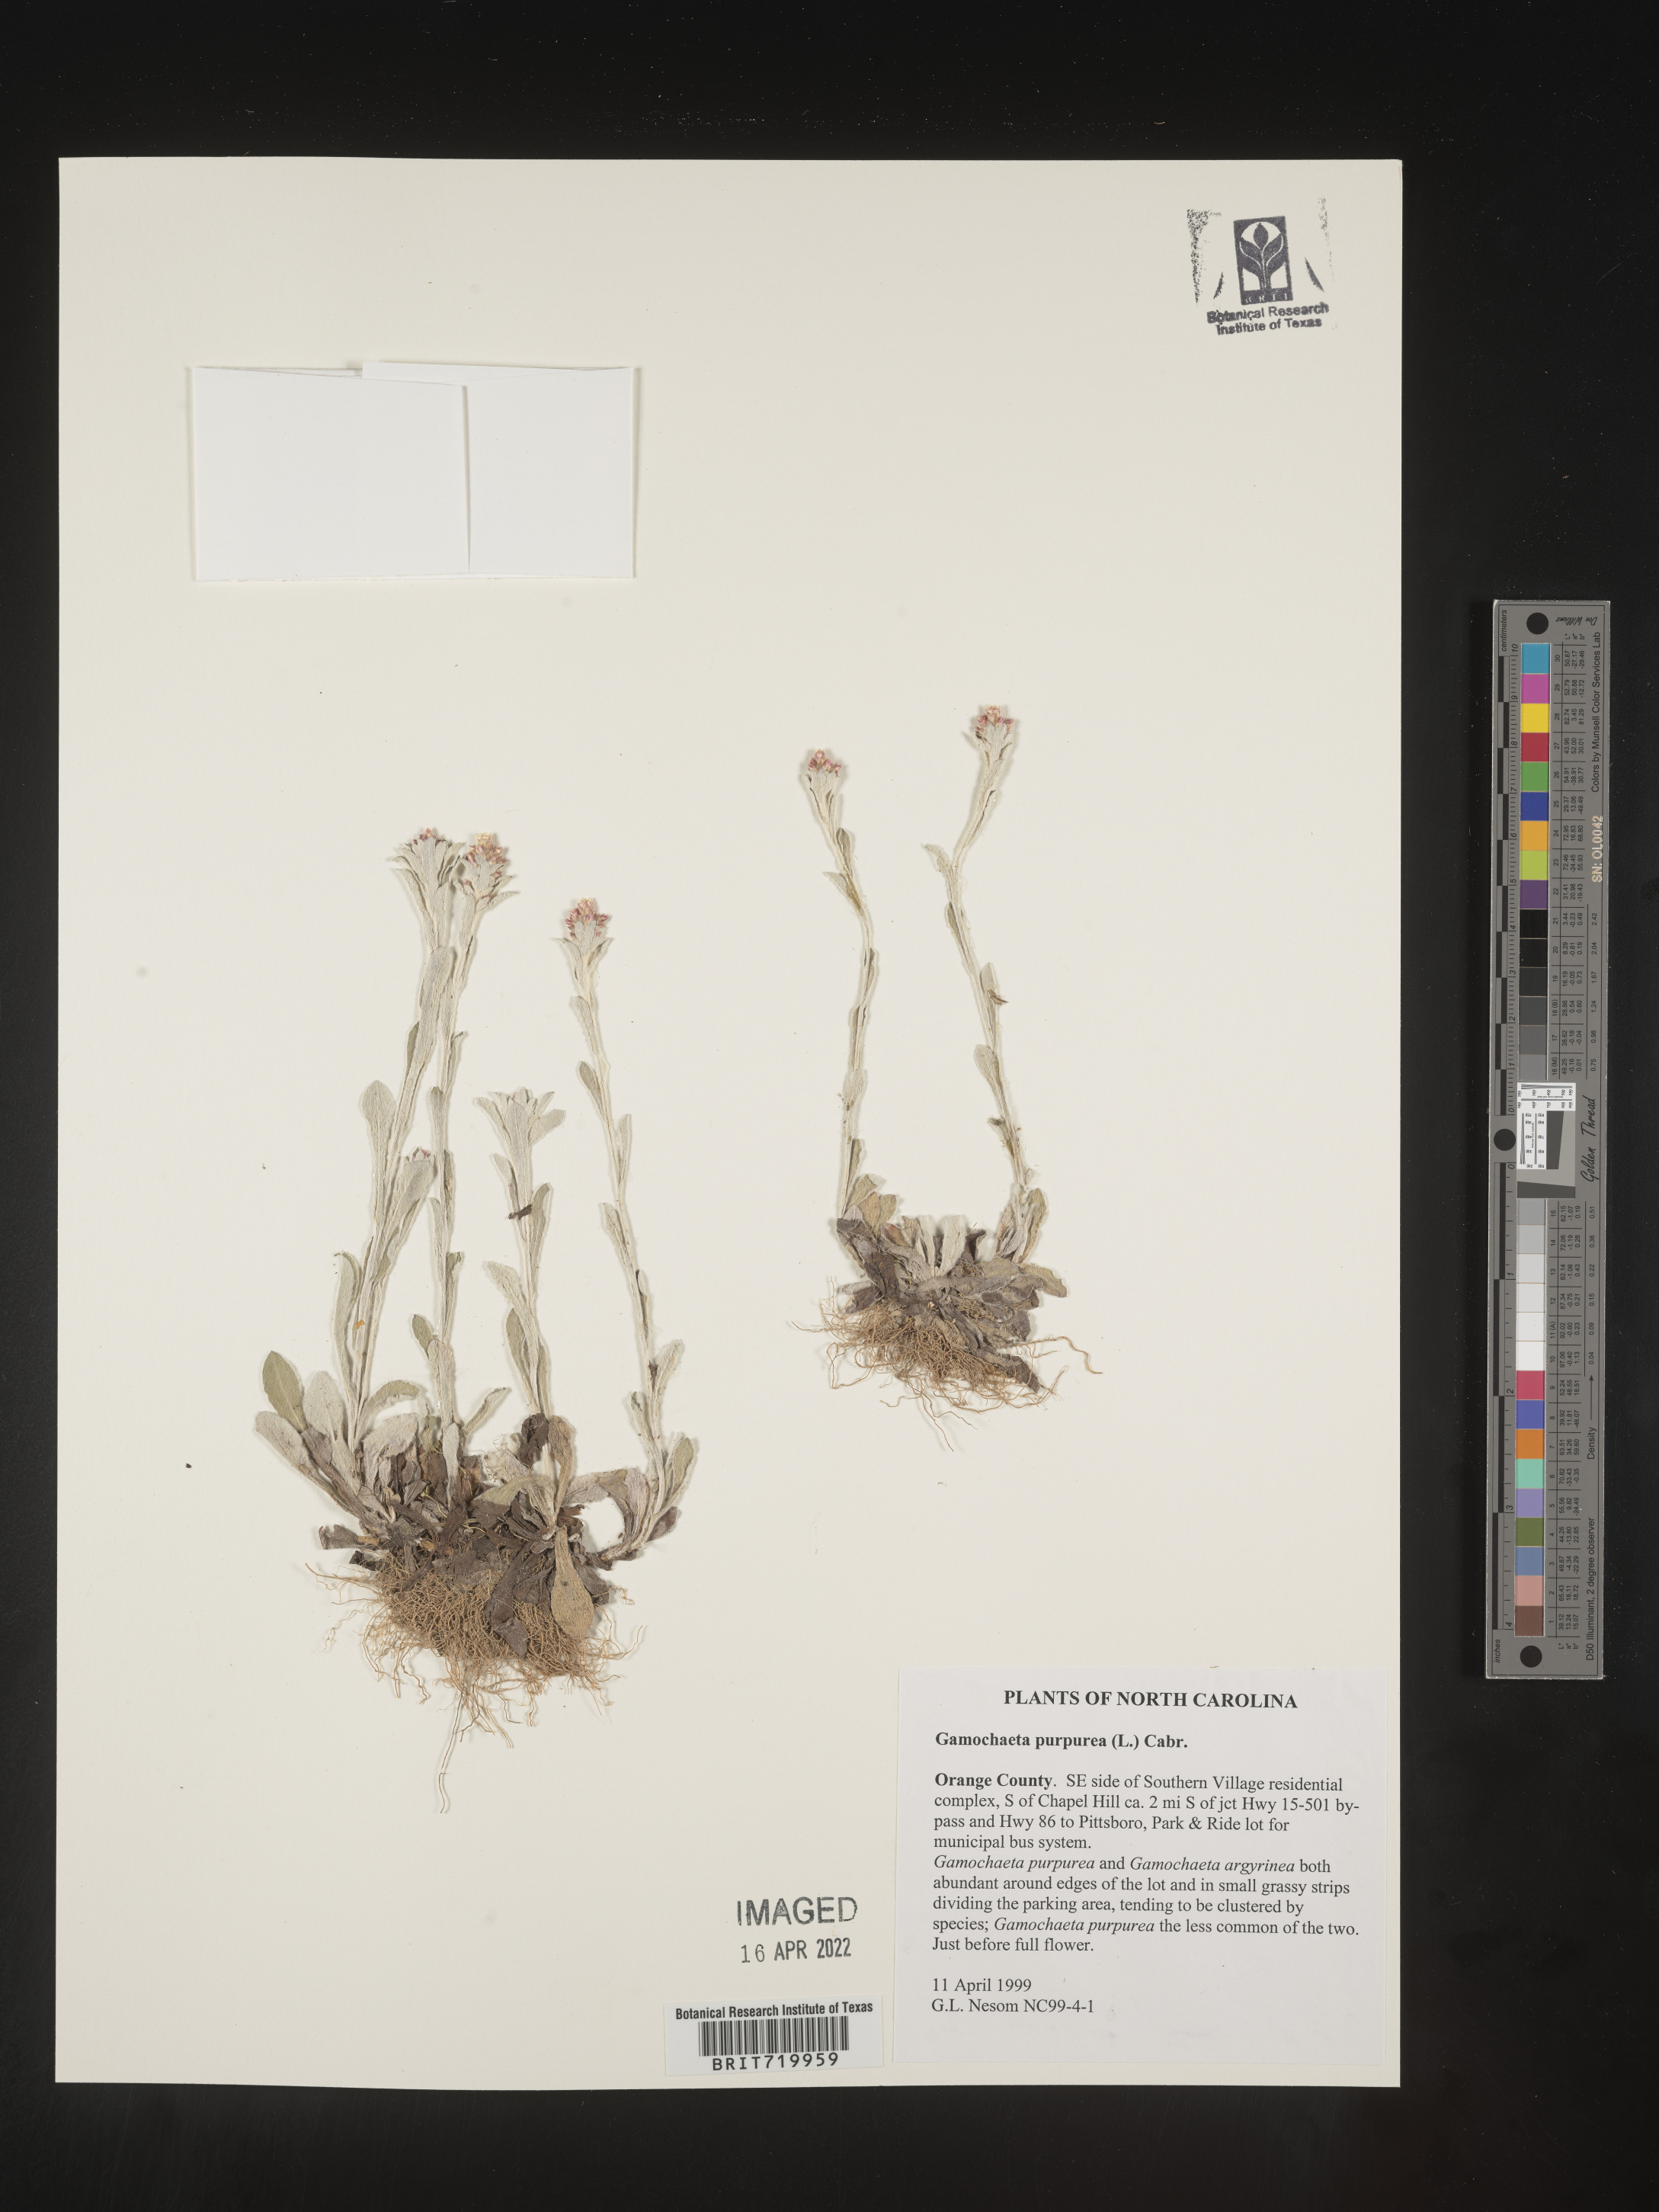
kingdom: Plantae
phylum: Tracheophyta
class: Magnoliopsida
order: Asterales
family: Asteraceae
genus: Gamochaeta
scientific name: Gamochaeta purpurea
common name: Purple cudweed
